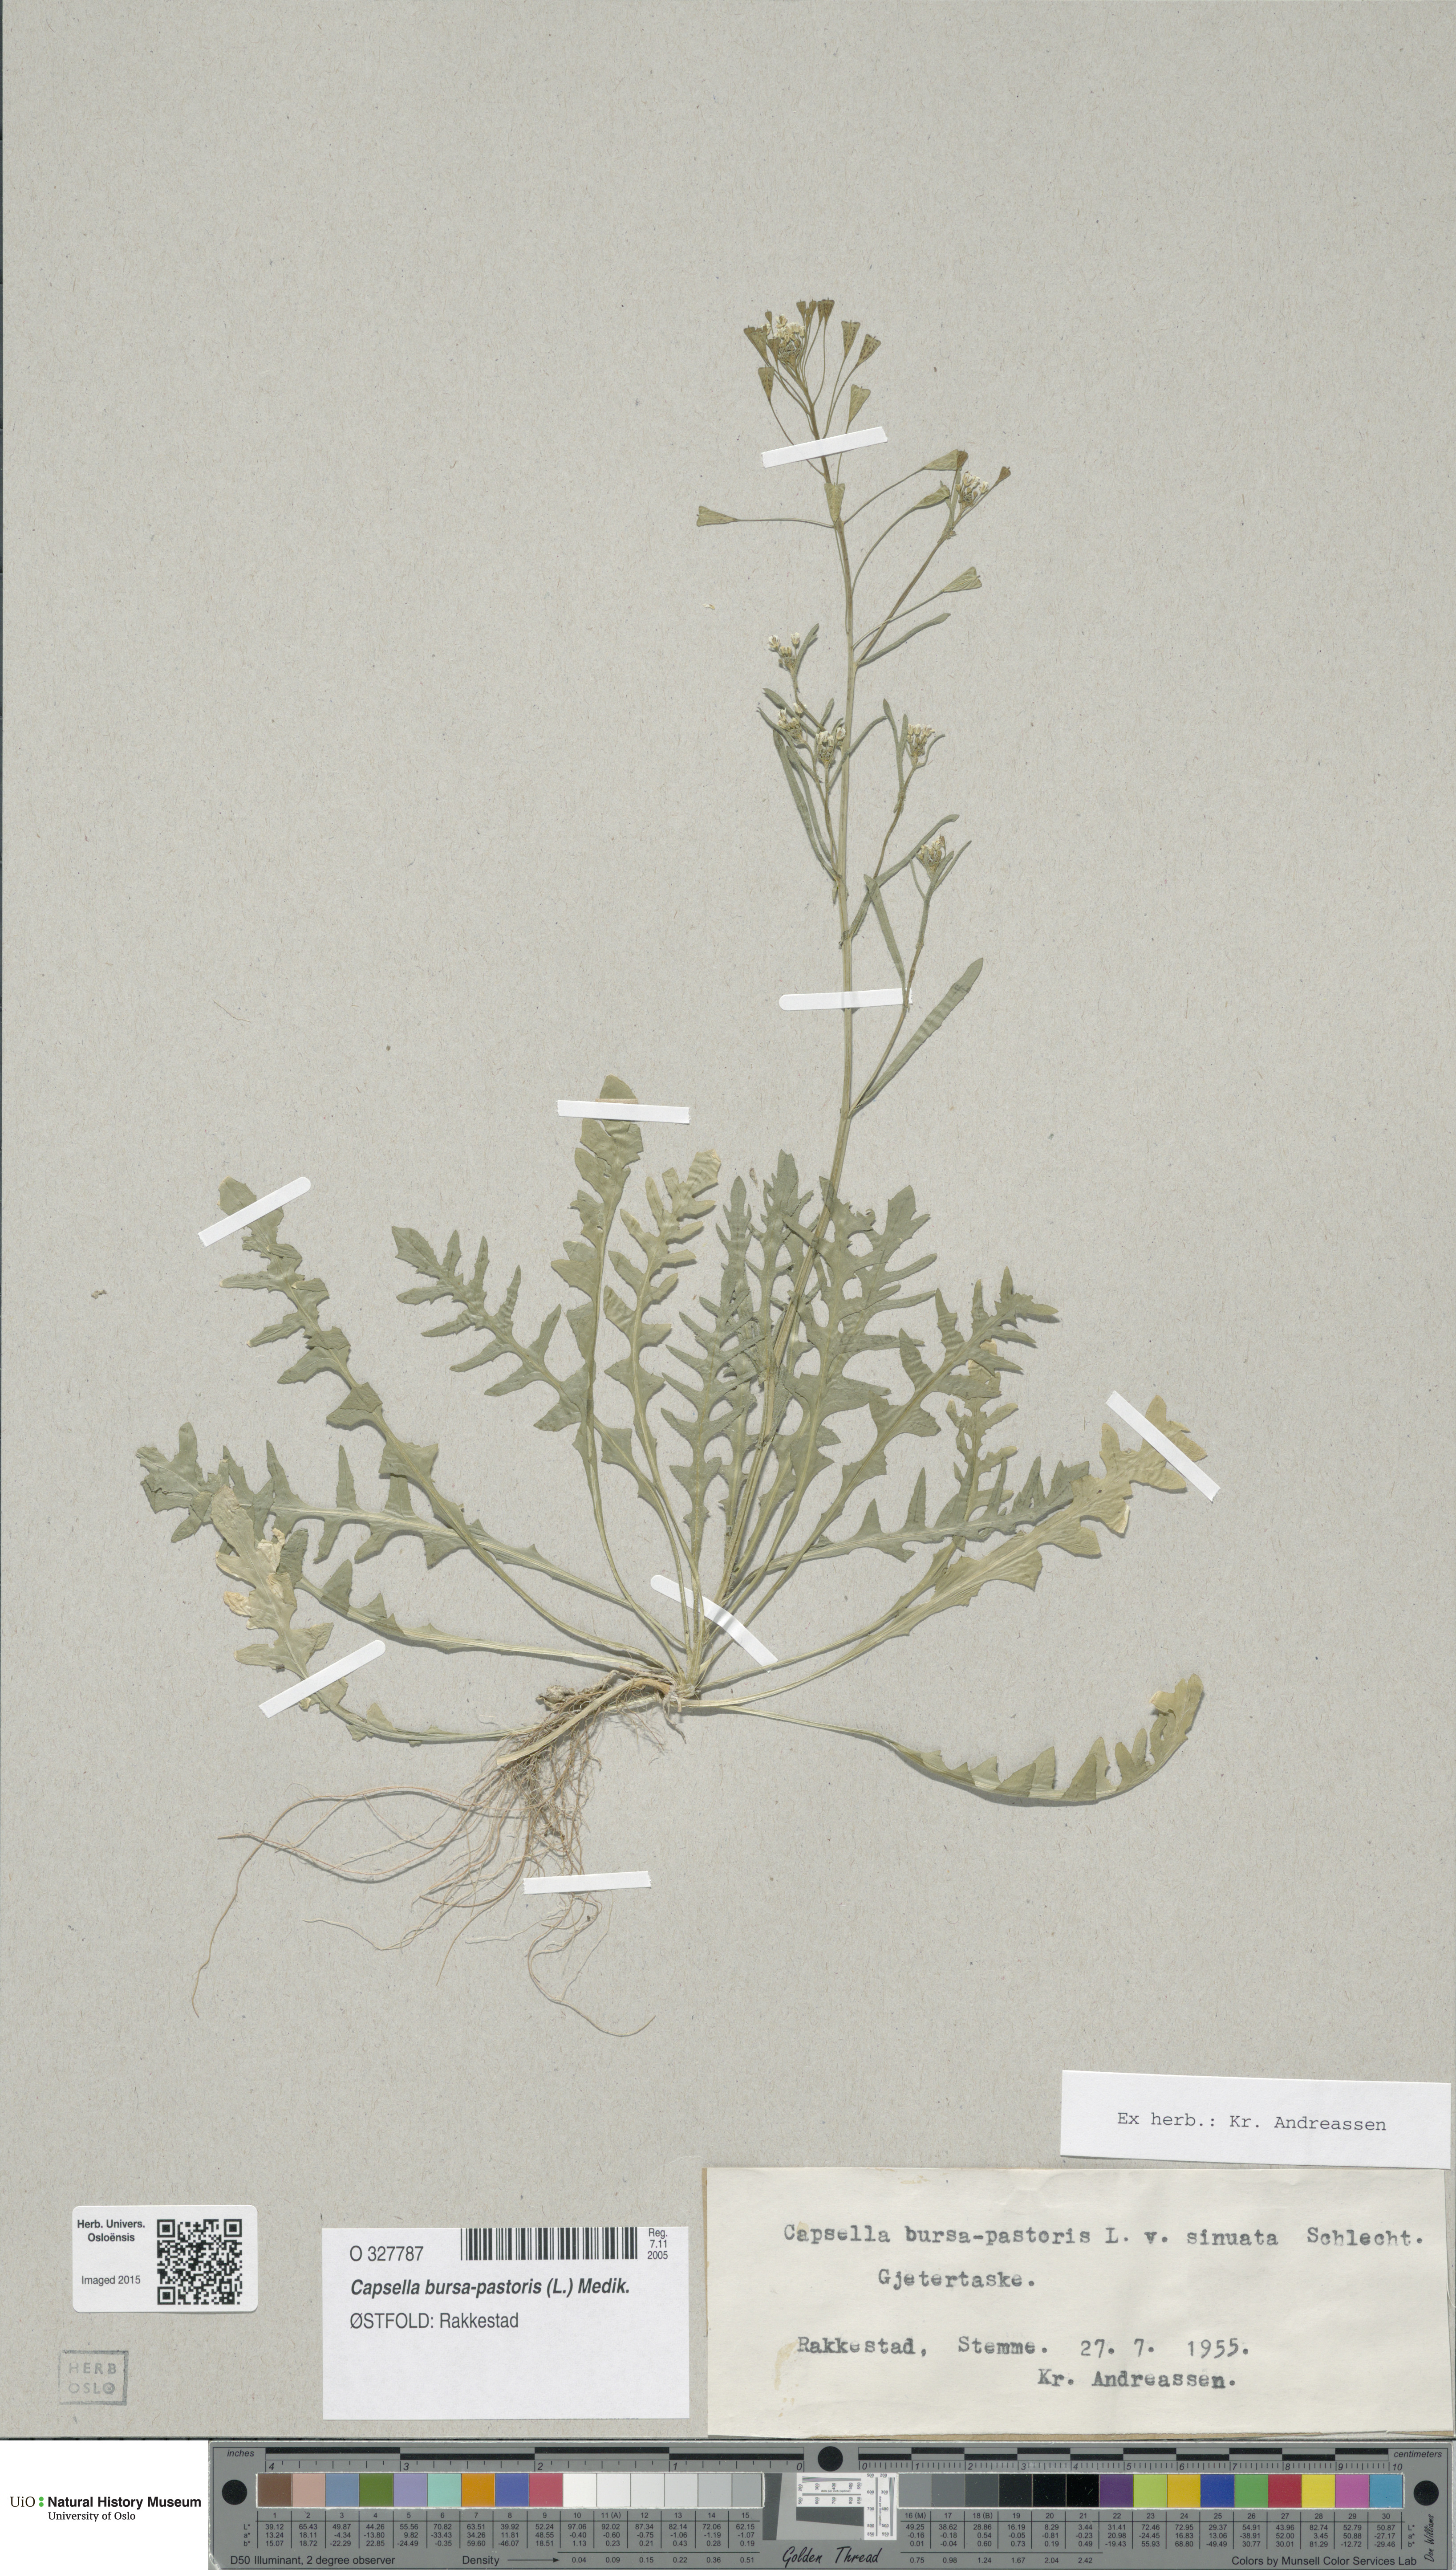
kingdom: Plantae
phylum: Tracheophyta
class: Magnoliopsida
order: Brassicales
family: Brassicaceae
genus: Capsella
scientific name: Capsella bursa-pastoris
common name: Shepherd's purse
